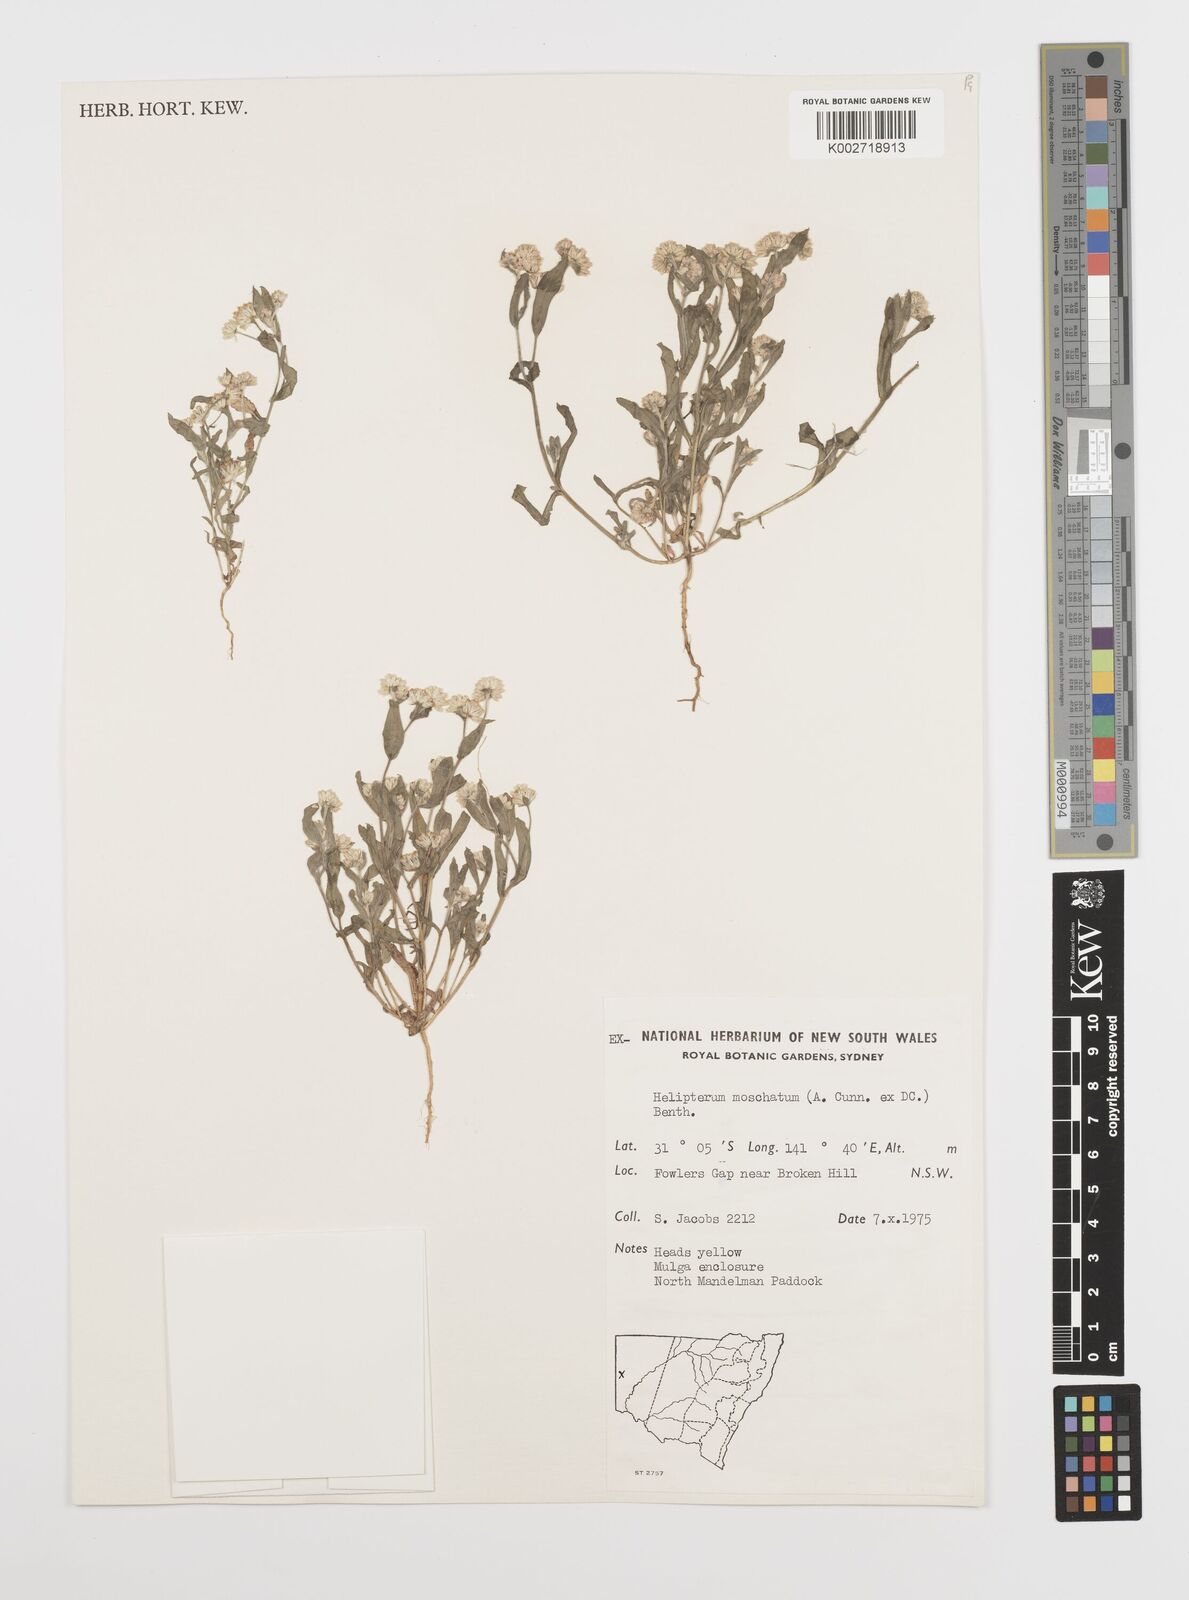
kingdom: Plantae
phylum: Tracheophyta
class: Magnoliopsida
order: Asterales
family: Asteraceae
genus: Rhodanthe
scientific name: Rhodanthe moschata
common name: Musk sunray
